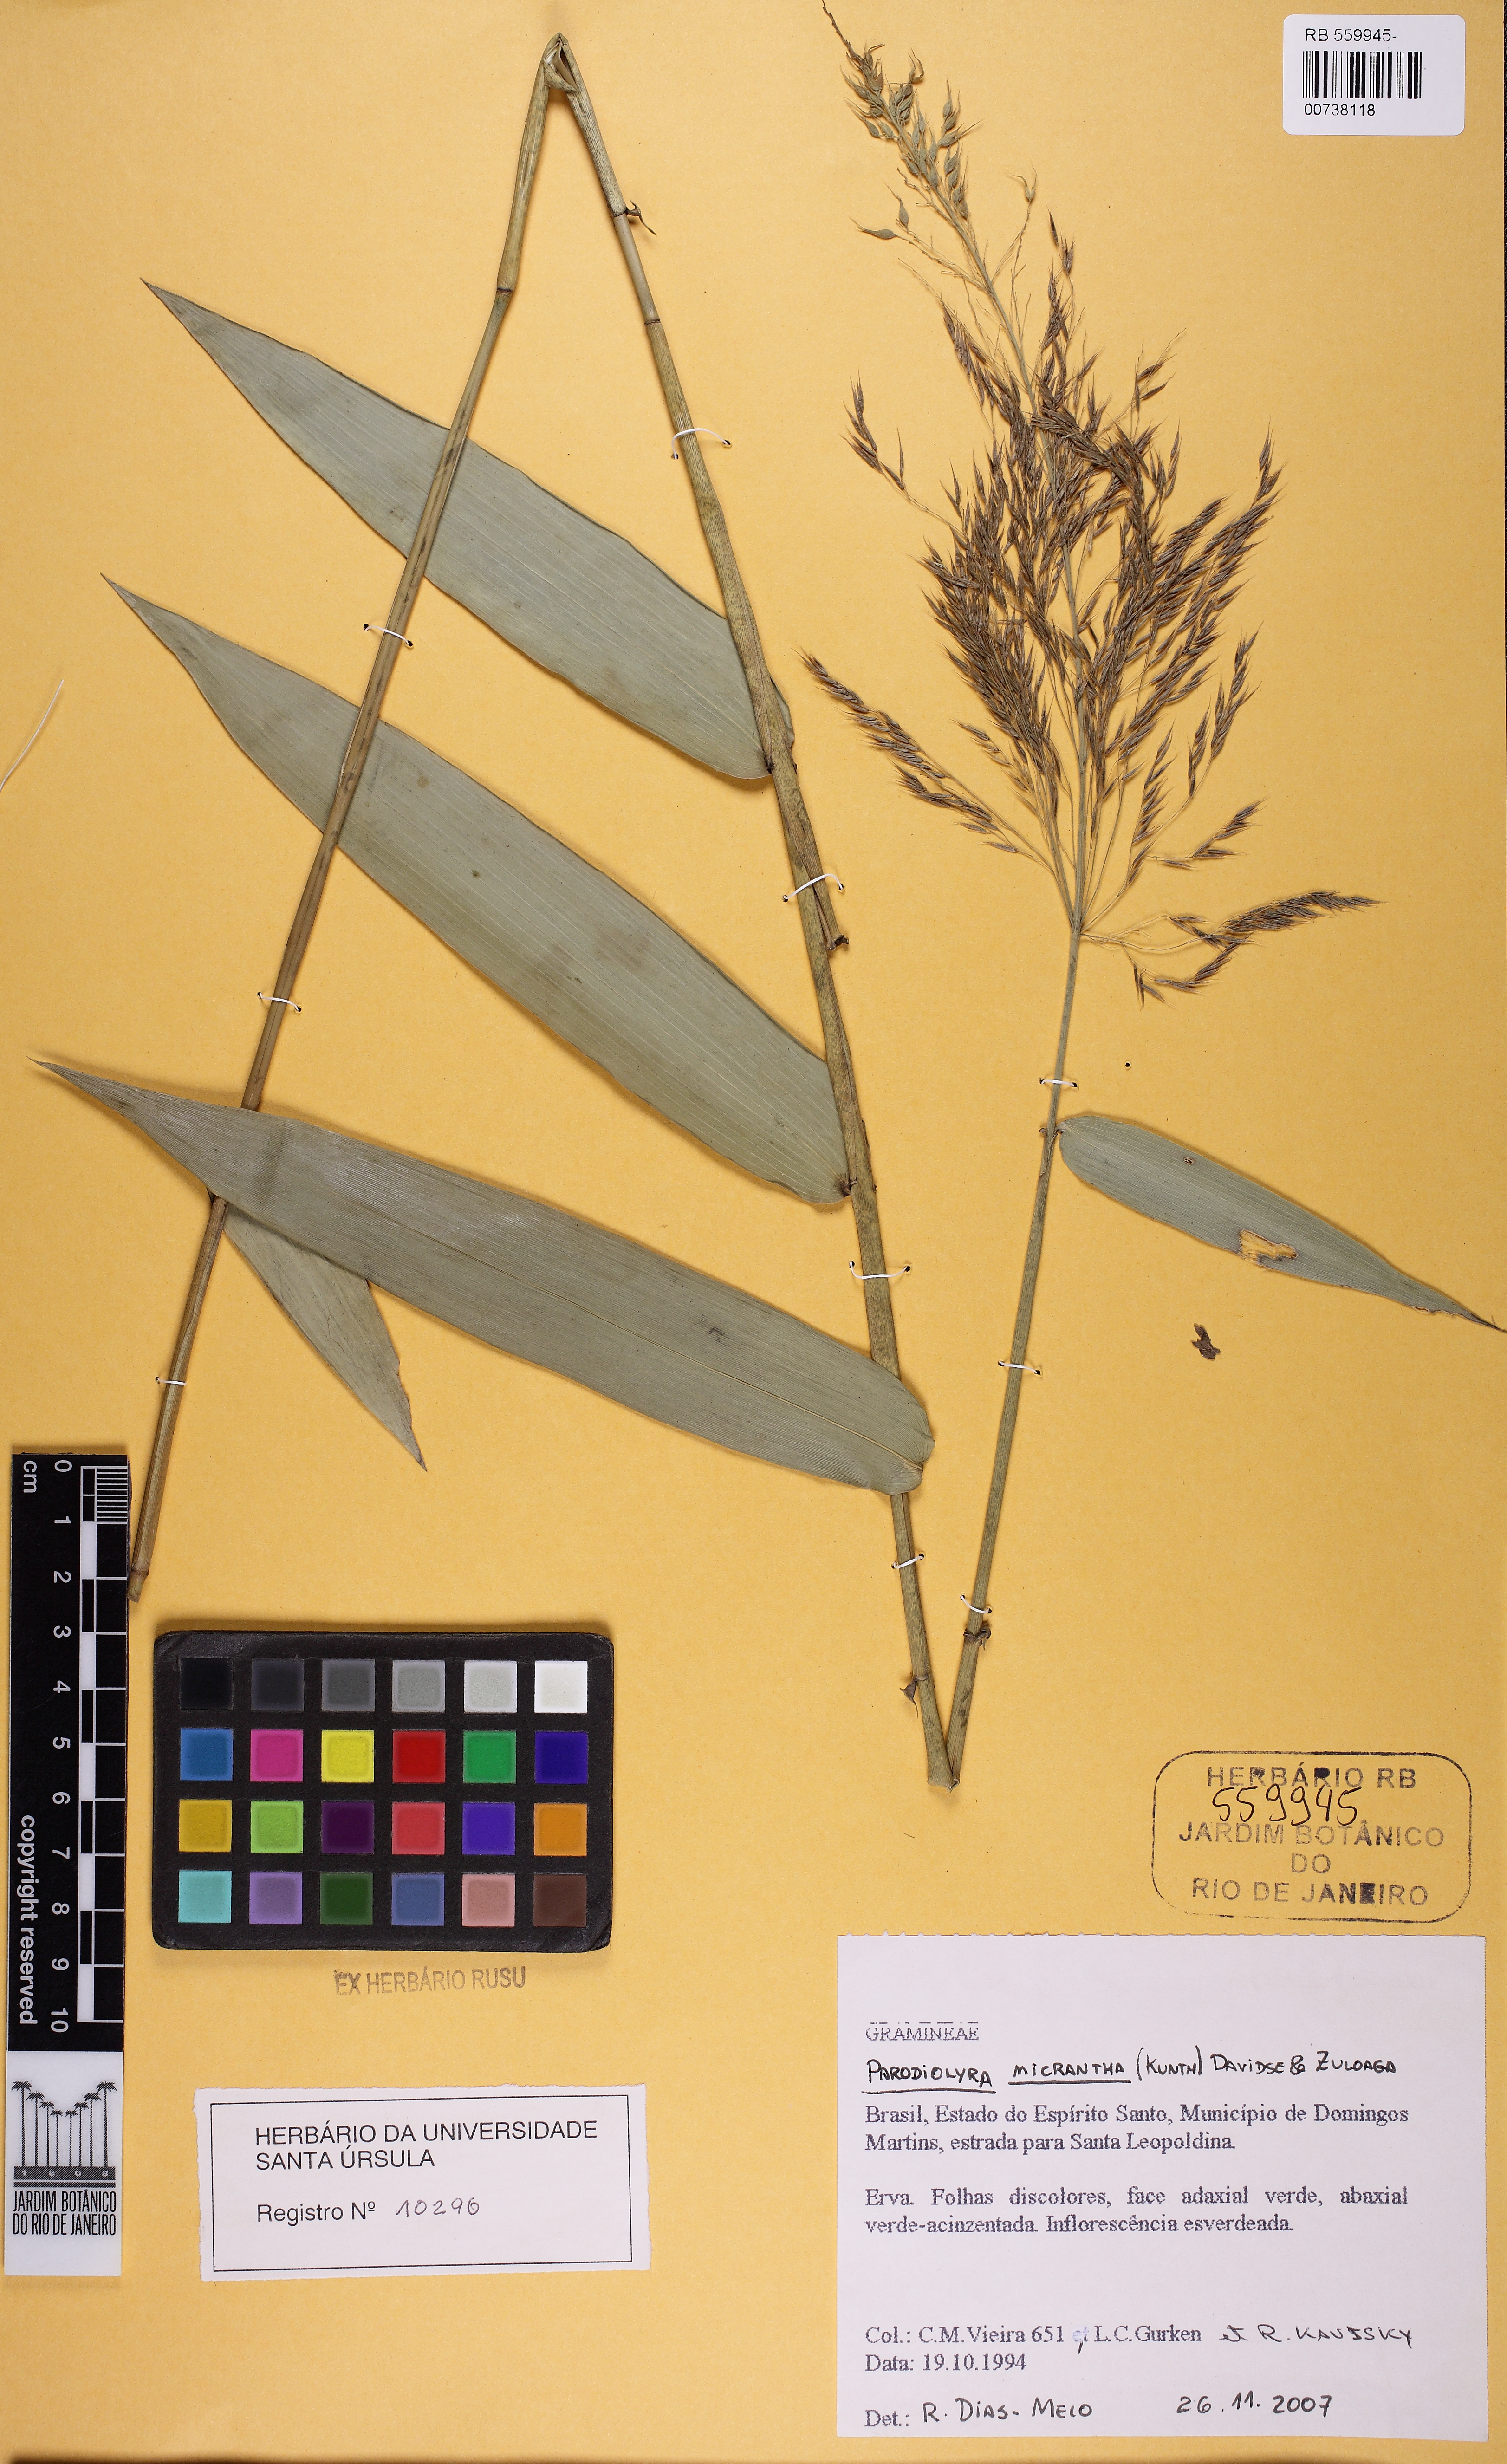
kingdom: Plantae
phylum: Tracheophyta
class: Liliopsida
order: Poales
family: Poaceae
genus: Taquara
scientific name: Taquara micrantha
